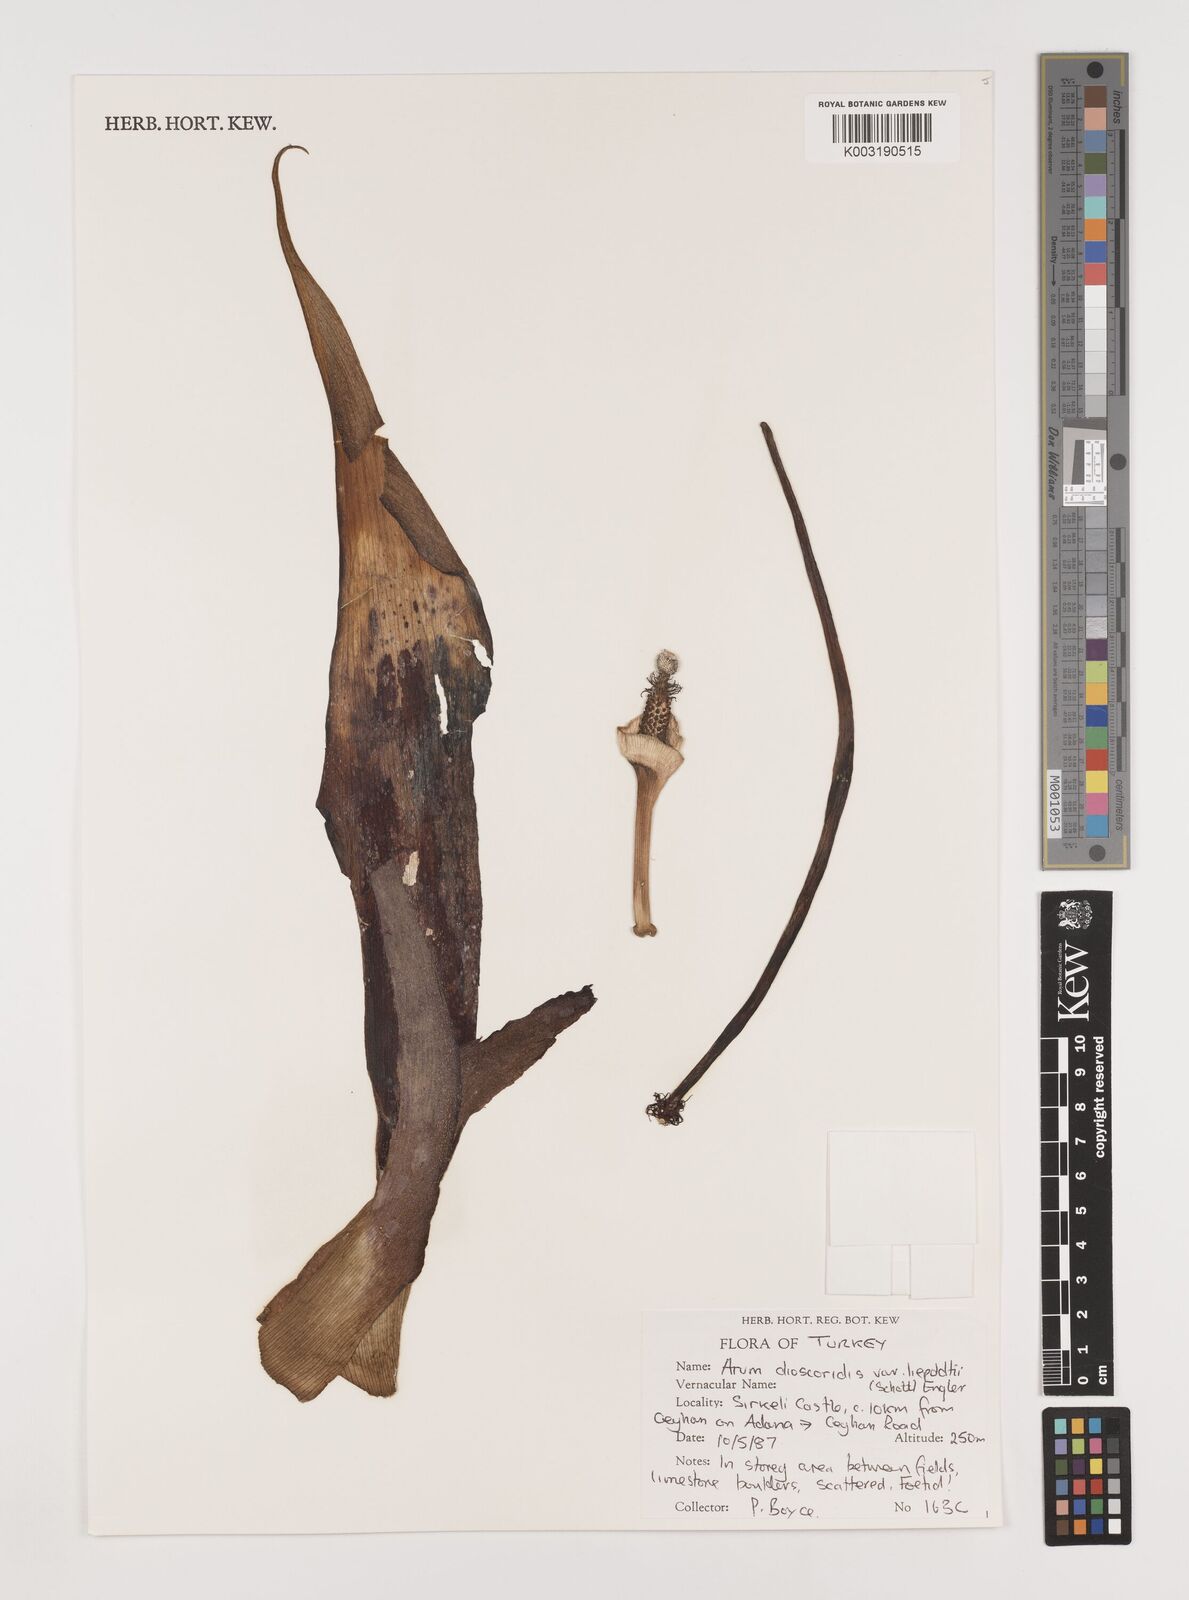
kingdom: Plantae
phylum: Tracheophyta
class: Liliopsida
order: Alismatales
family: Araceae
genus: Arum
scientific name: Arum dioscoridis
